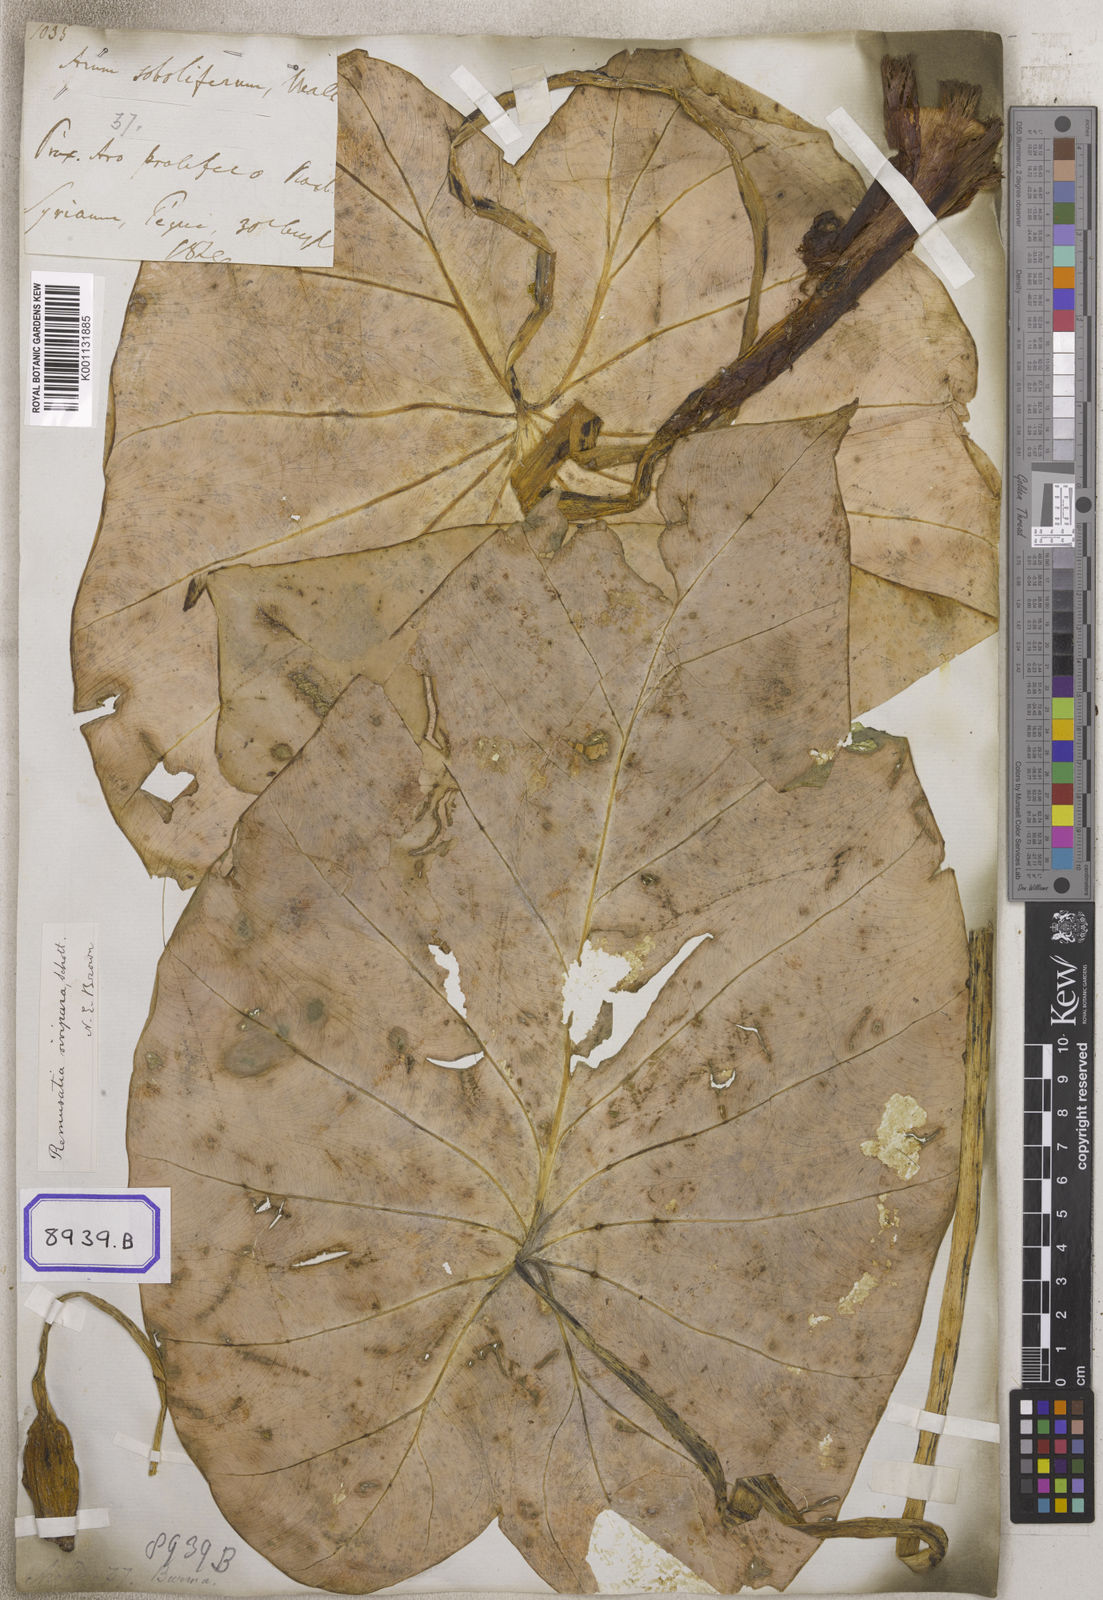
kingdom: Plantae
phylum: Tracheophyta
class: Liliopsida
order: Alismatales
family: Araceae
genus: Remusatia
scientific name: Remusatia vivipara
